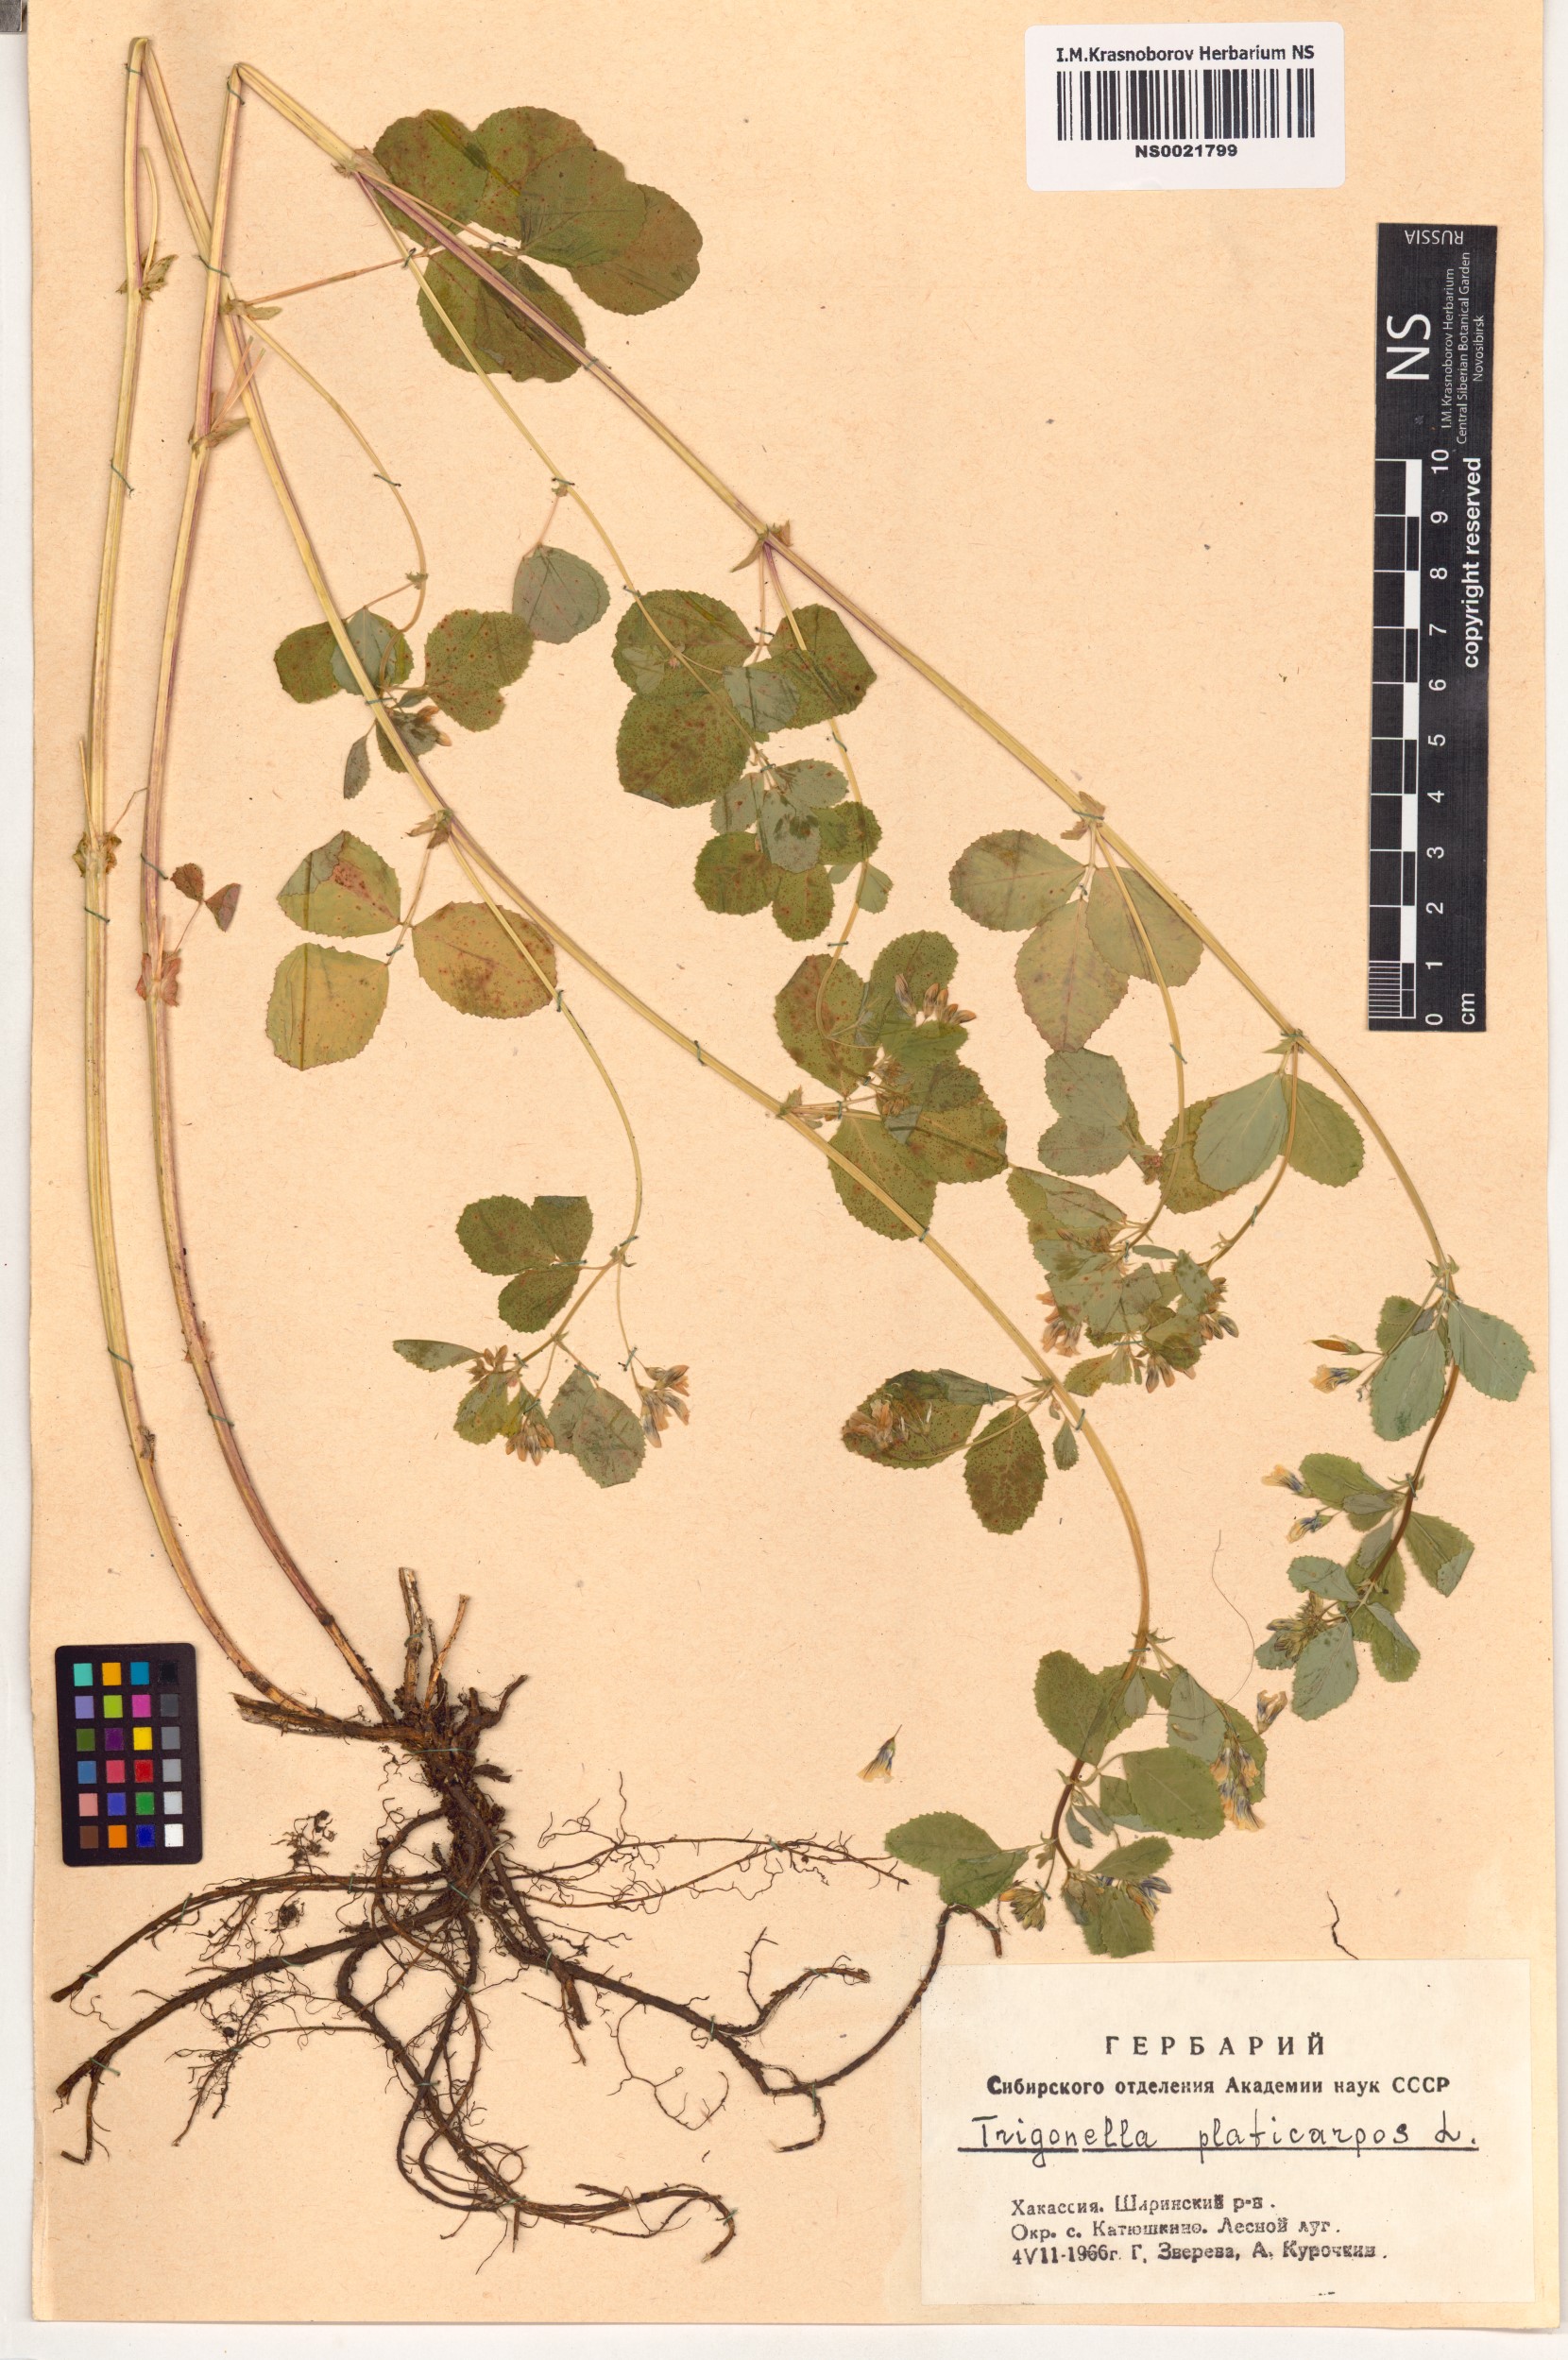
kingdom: Plantae
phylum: Tracheophyta
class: Magnoliopsida
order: Fabales
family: Fabaceae
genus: Medicago
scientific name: Medicago platycarpos
